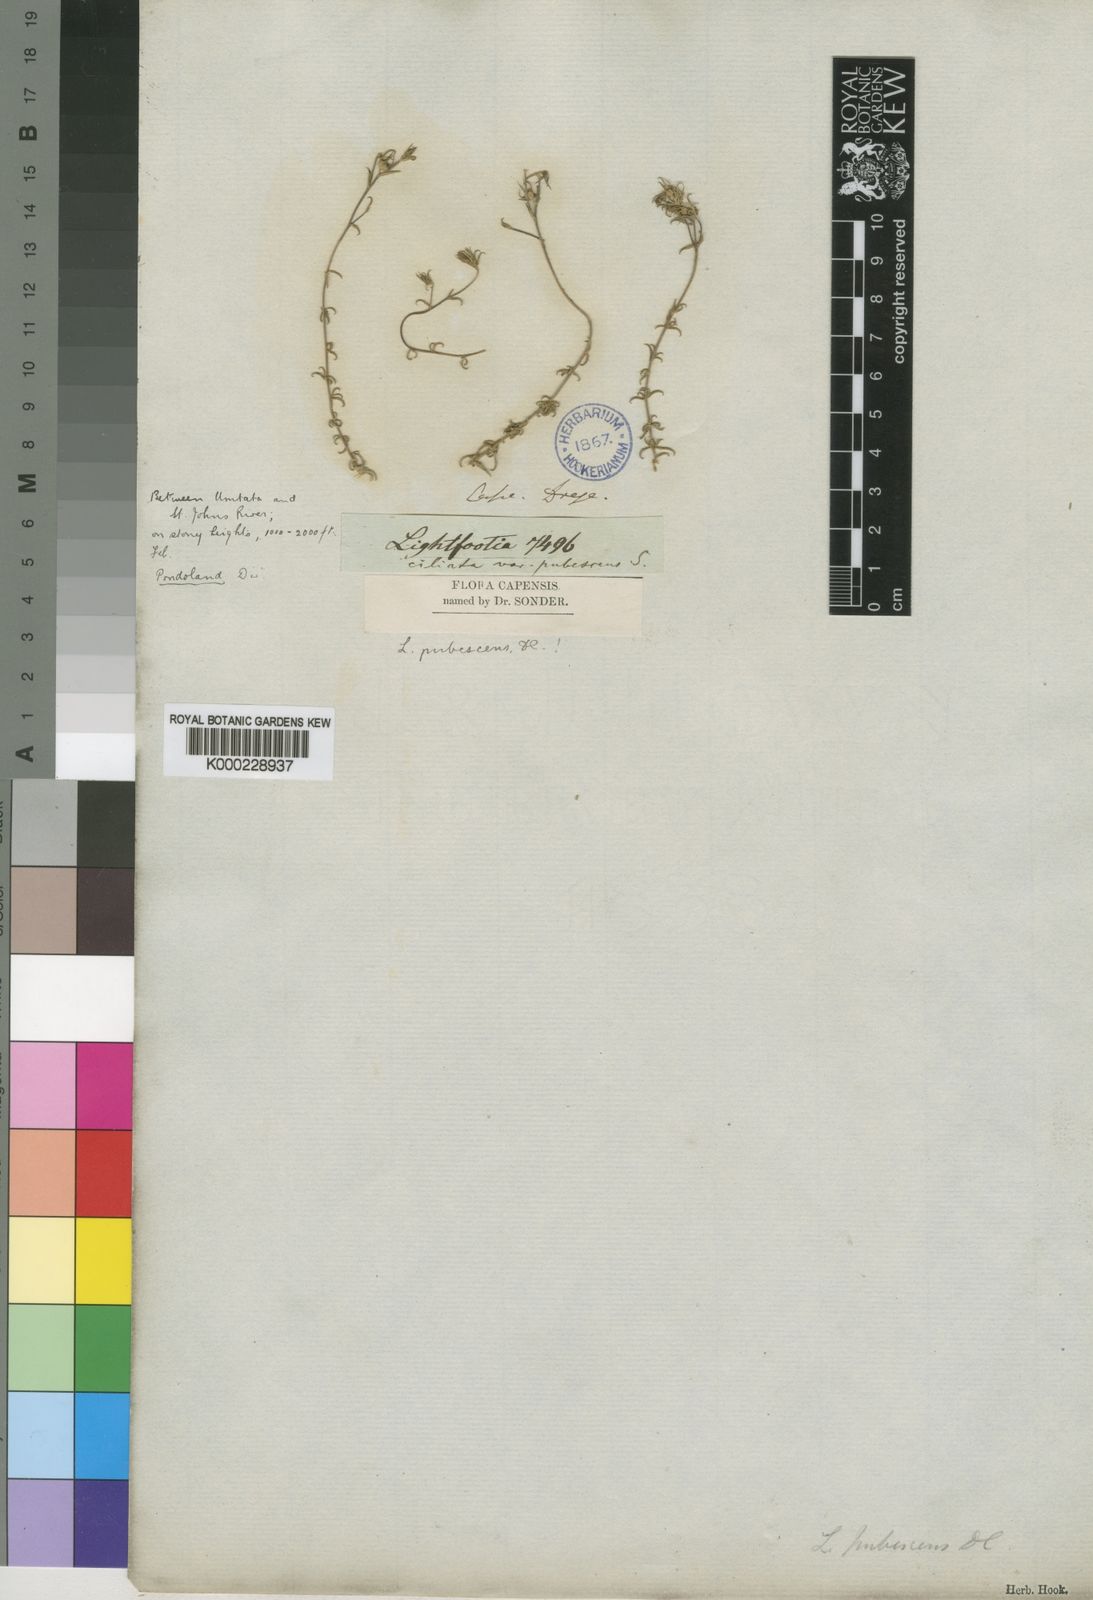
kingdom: Plantae
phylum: Tracheophyta
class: Magnoliopsida
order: Asterales
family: Campanulaceae
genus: Wahlenbergia
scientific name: Wahlenbergia thunbergii
